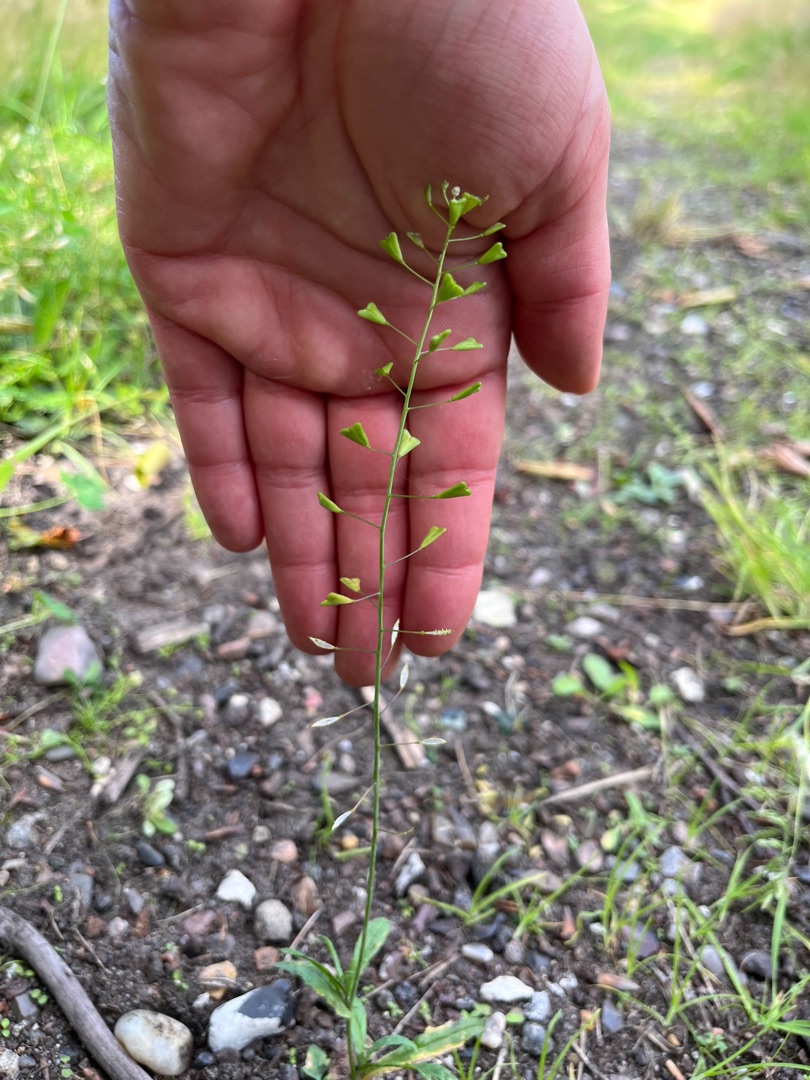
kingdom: Plantae
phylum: Tracheophyta
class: Magnoliopsida
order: Brassicales
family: Brassicaceae
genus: Capsella
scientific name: Capsella bursa-pastoris
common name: Hyrdetaske
